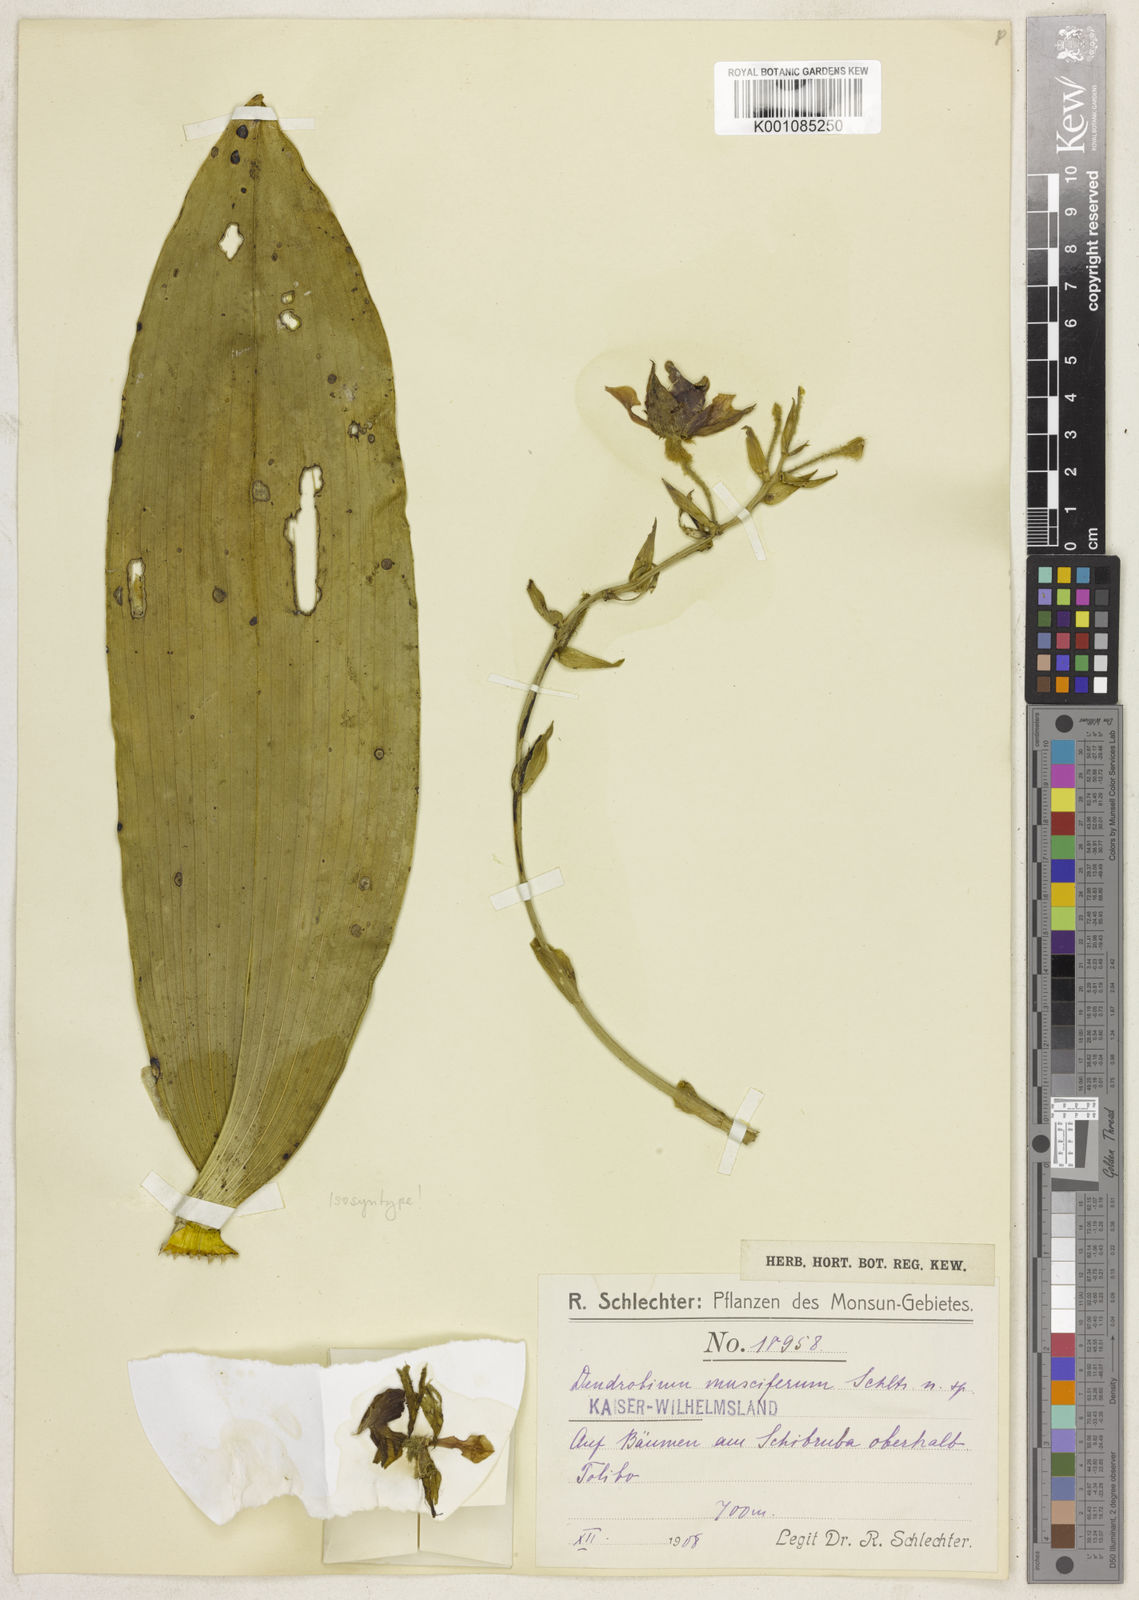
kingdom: Plantae
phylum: Tracheophyta
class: Liliopsida
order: Asparagales
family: Orchidaceae
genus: Dendrobium
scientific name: Dendrobium macrophyllum
